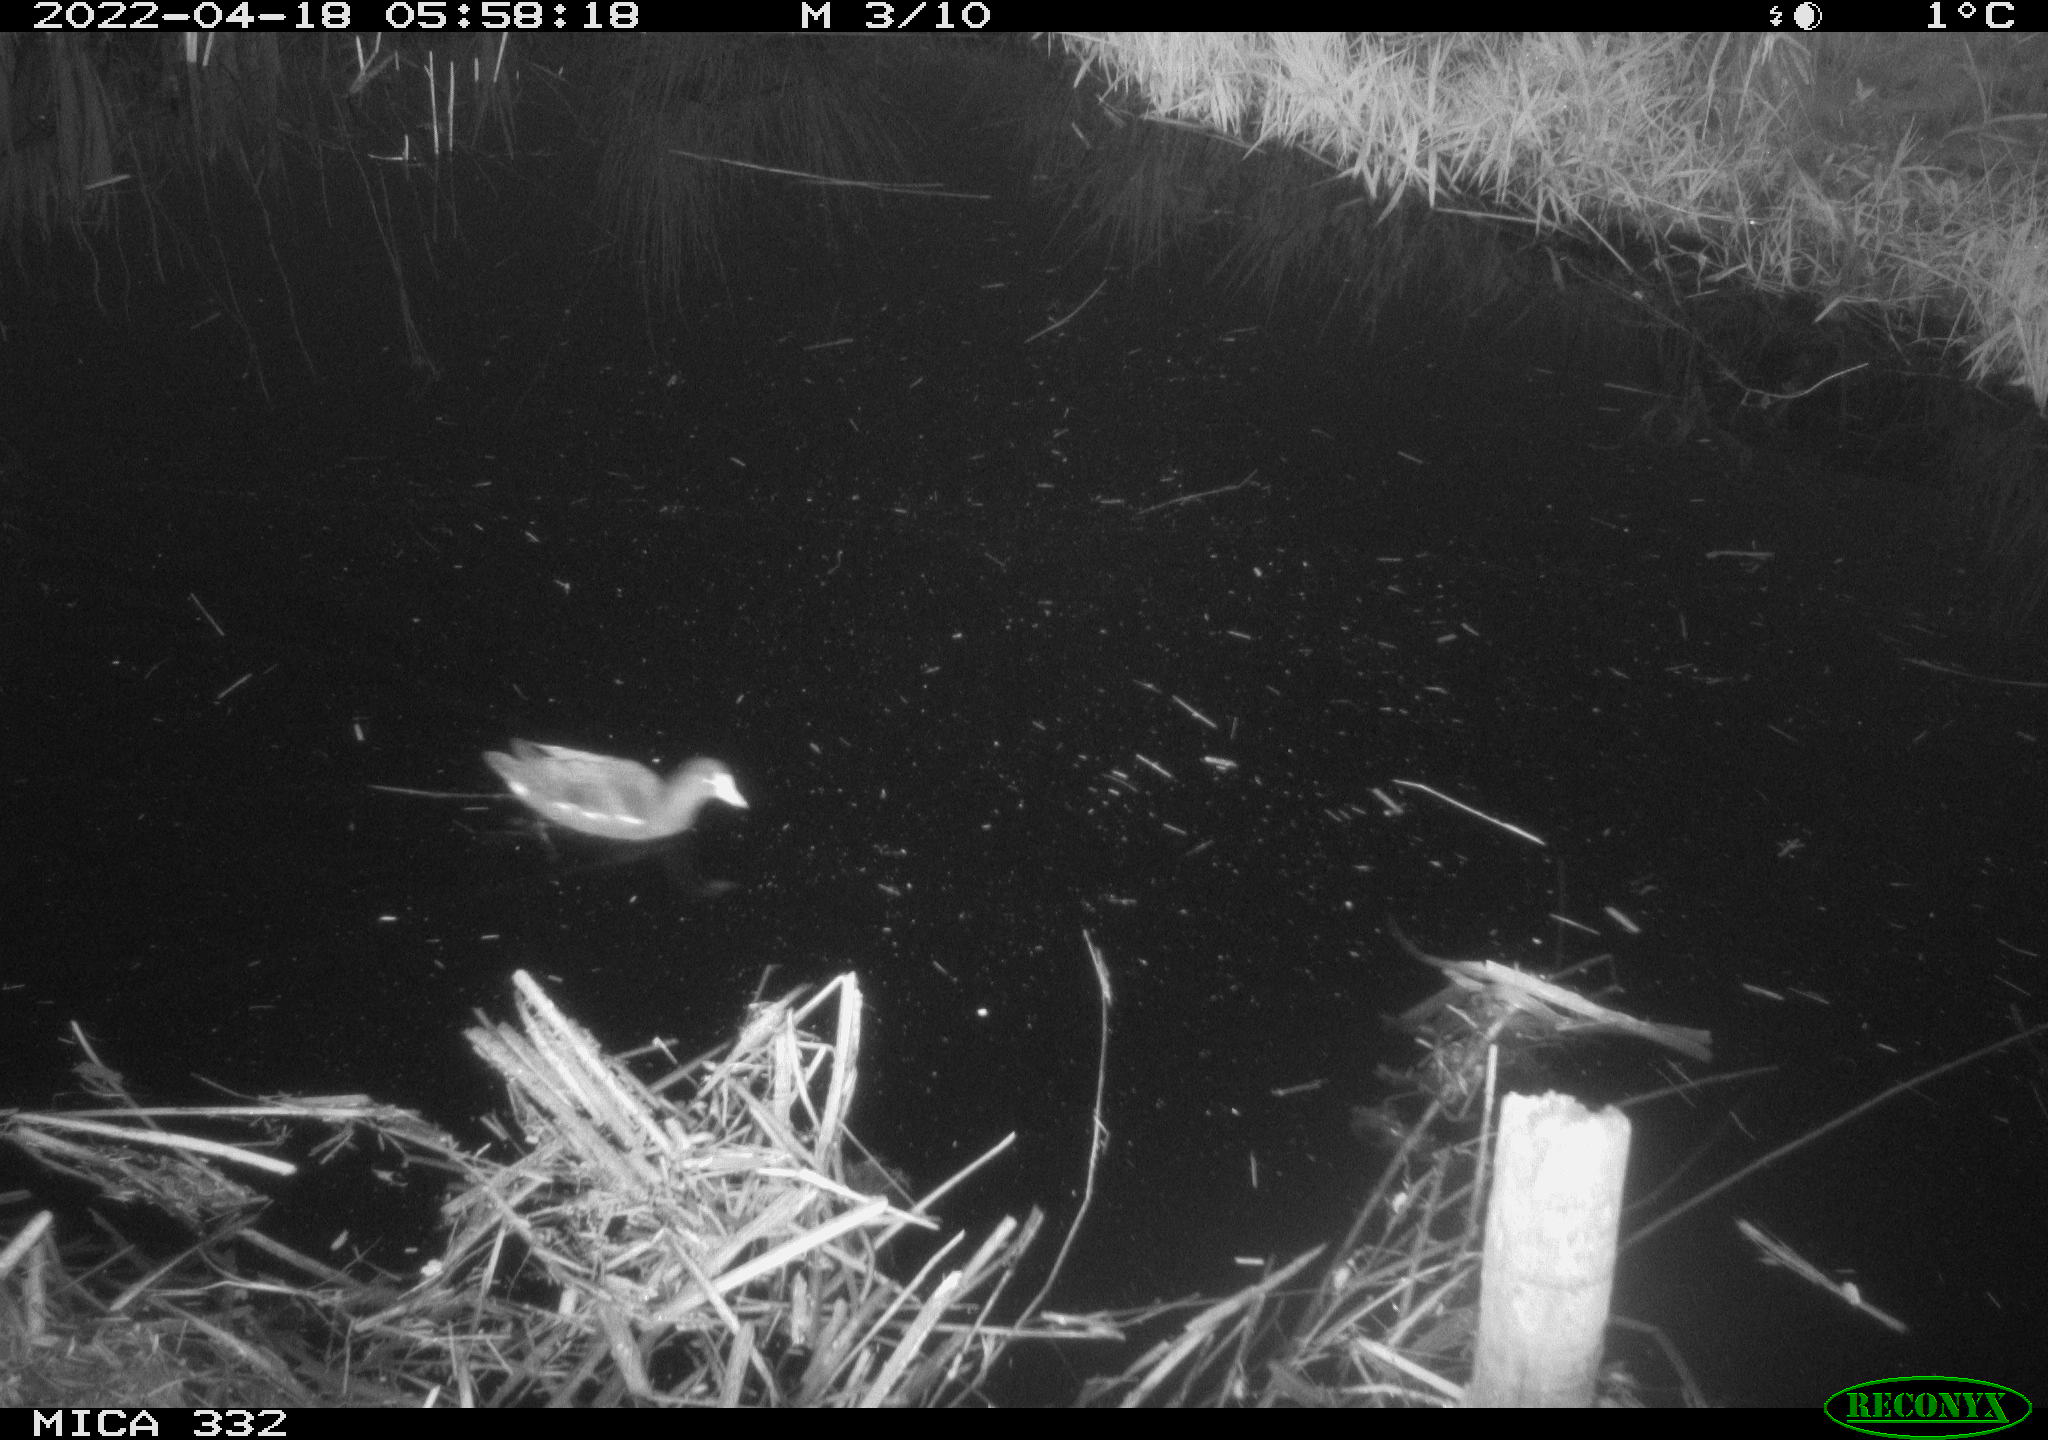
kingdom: Animalia
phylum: Chordata
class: Aves
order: Gruiformes
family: Rallidae
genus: Gallinula
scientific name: Gallinula chloropus
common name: Common moorhen
